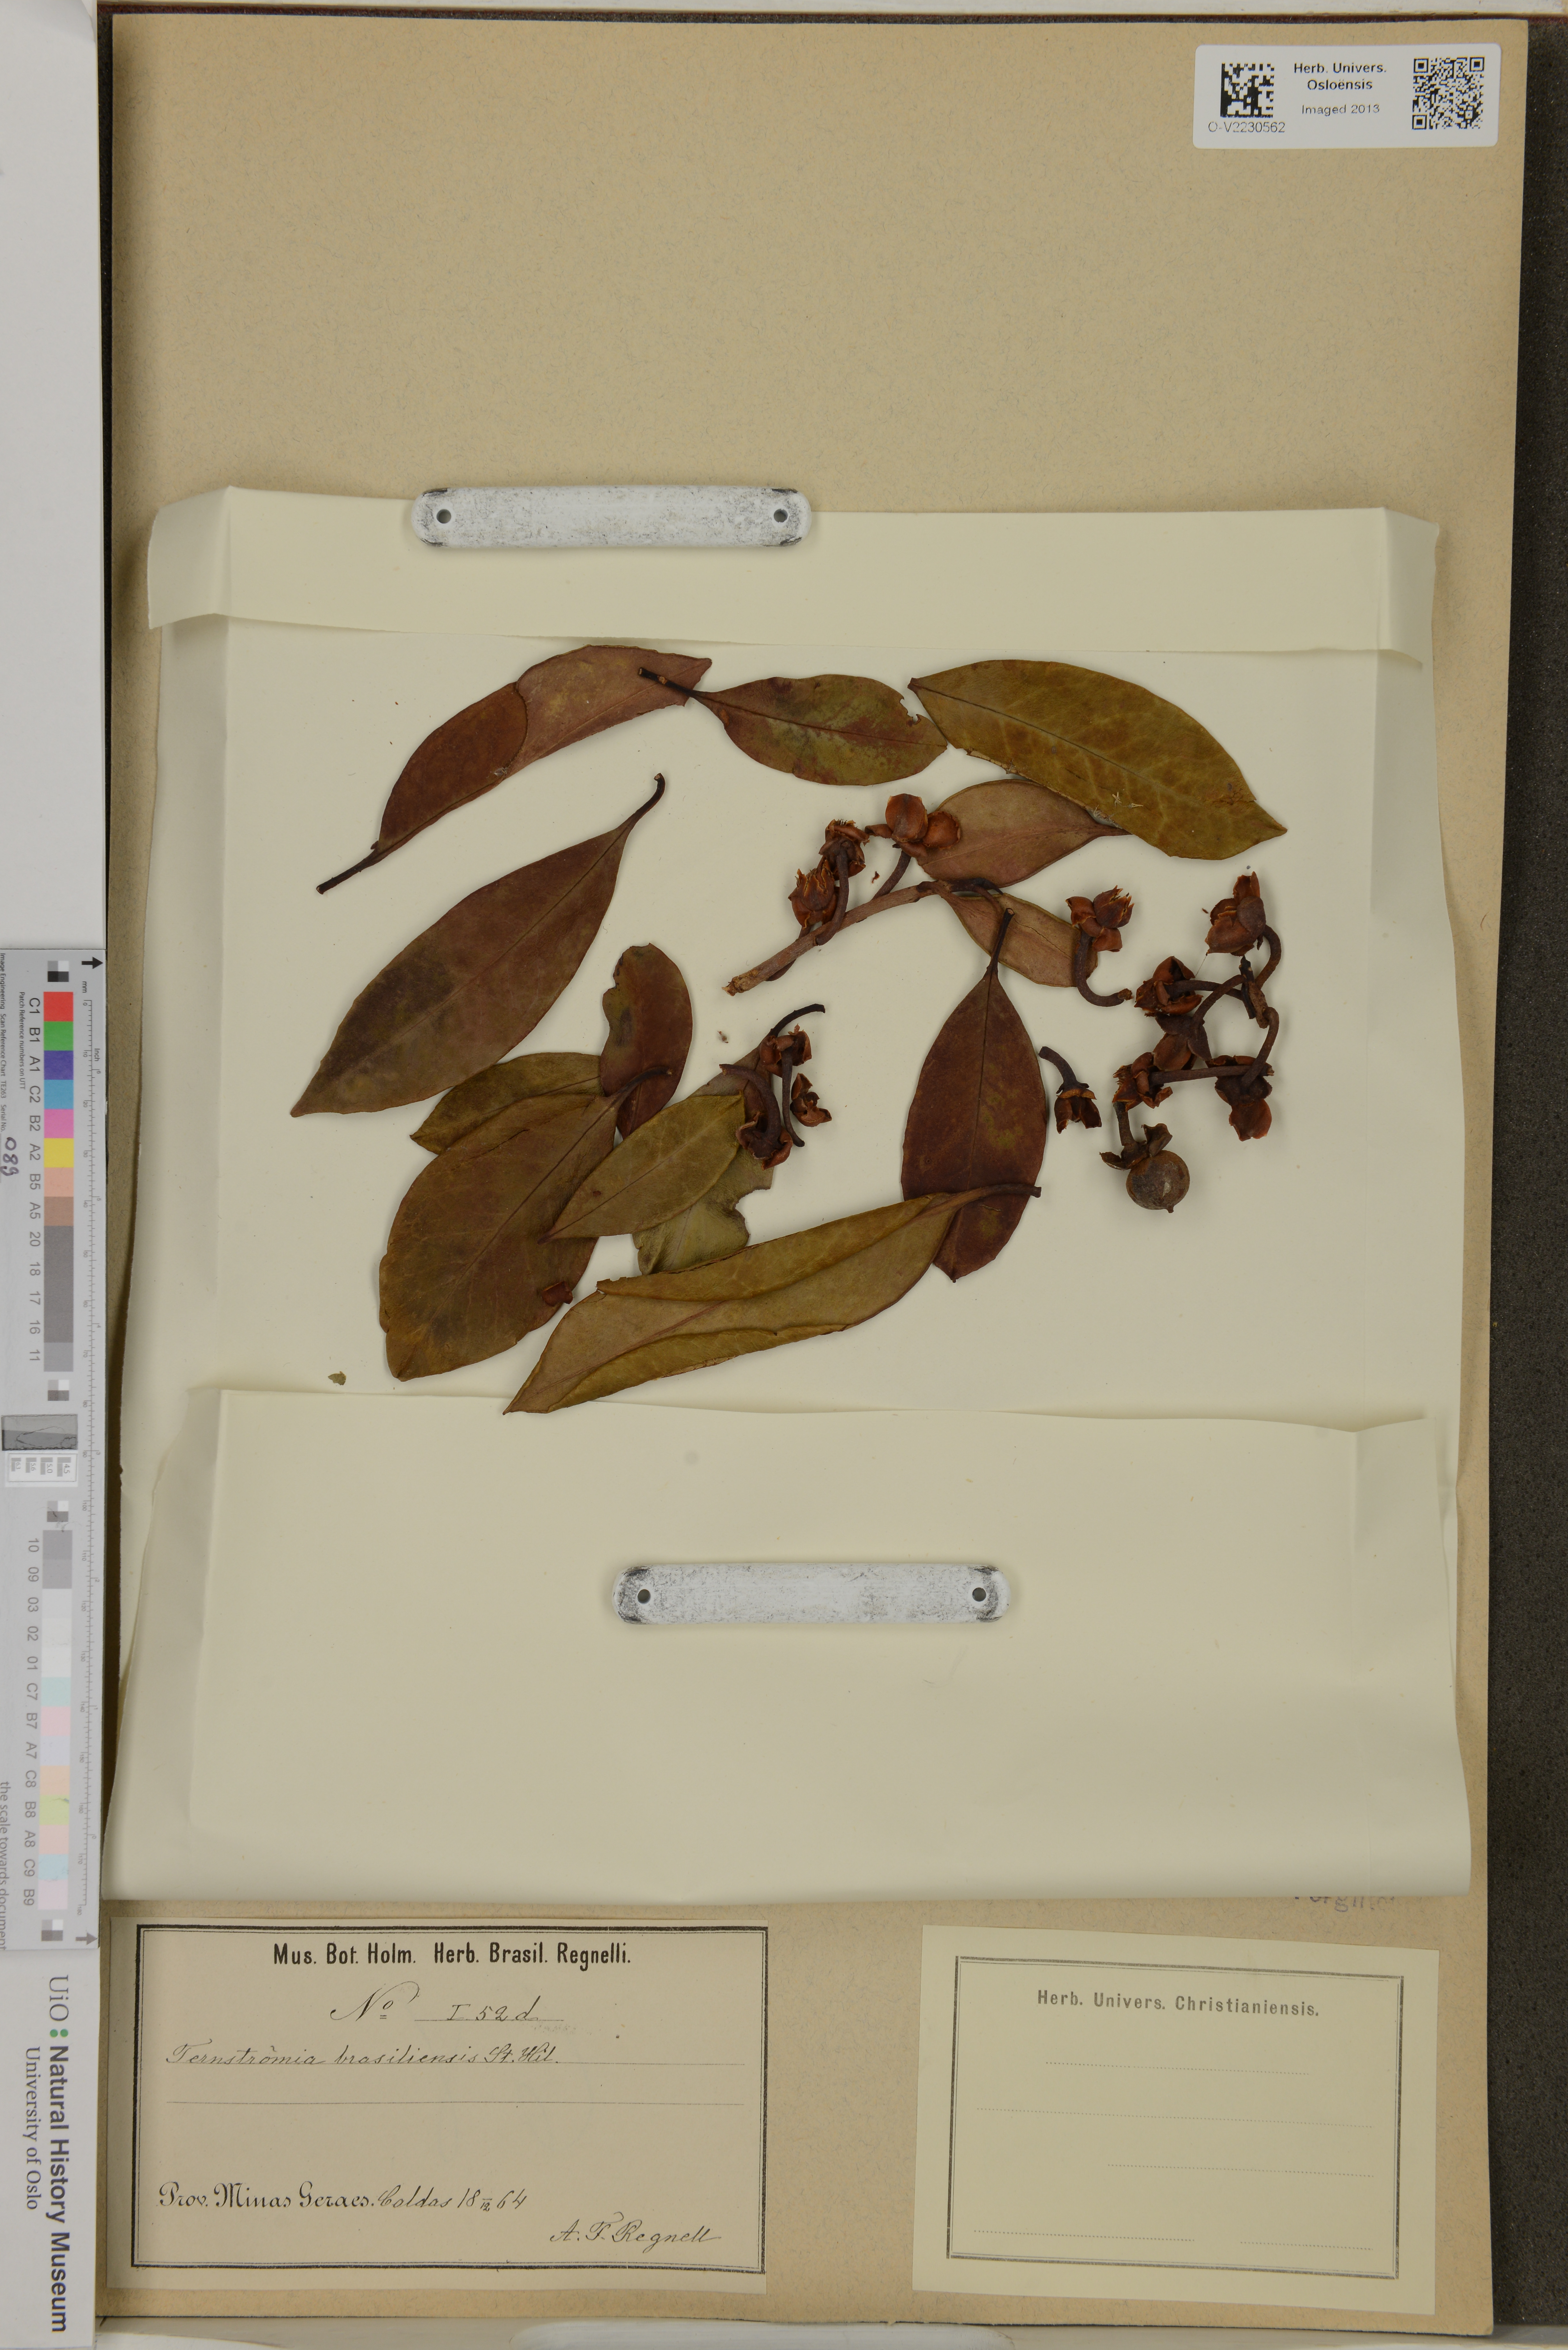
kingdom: Plantae
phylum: Tracheophyta
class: Magnoliopsida
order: Ericales
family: Pentaphylacaceae
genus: Ternstroemia
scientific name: Ternstroemia brasiliensis
